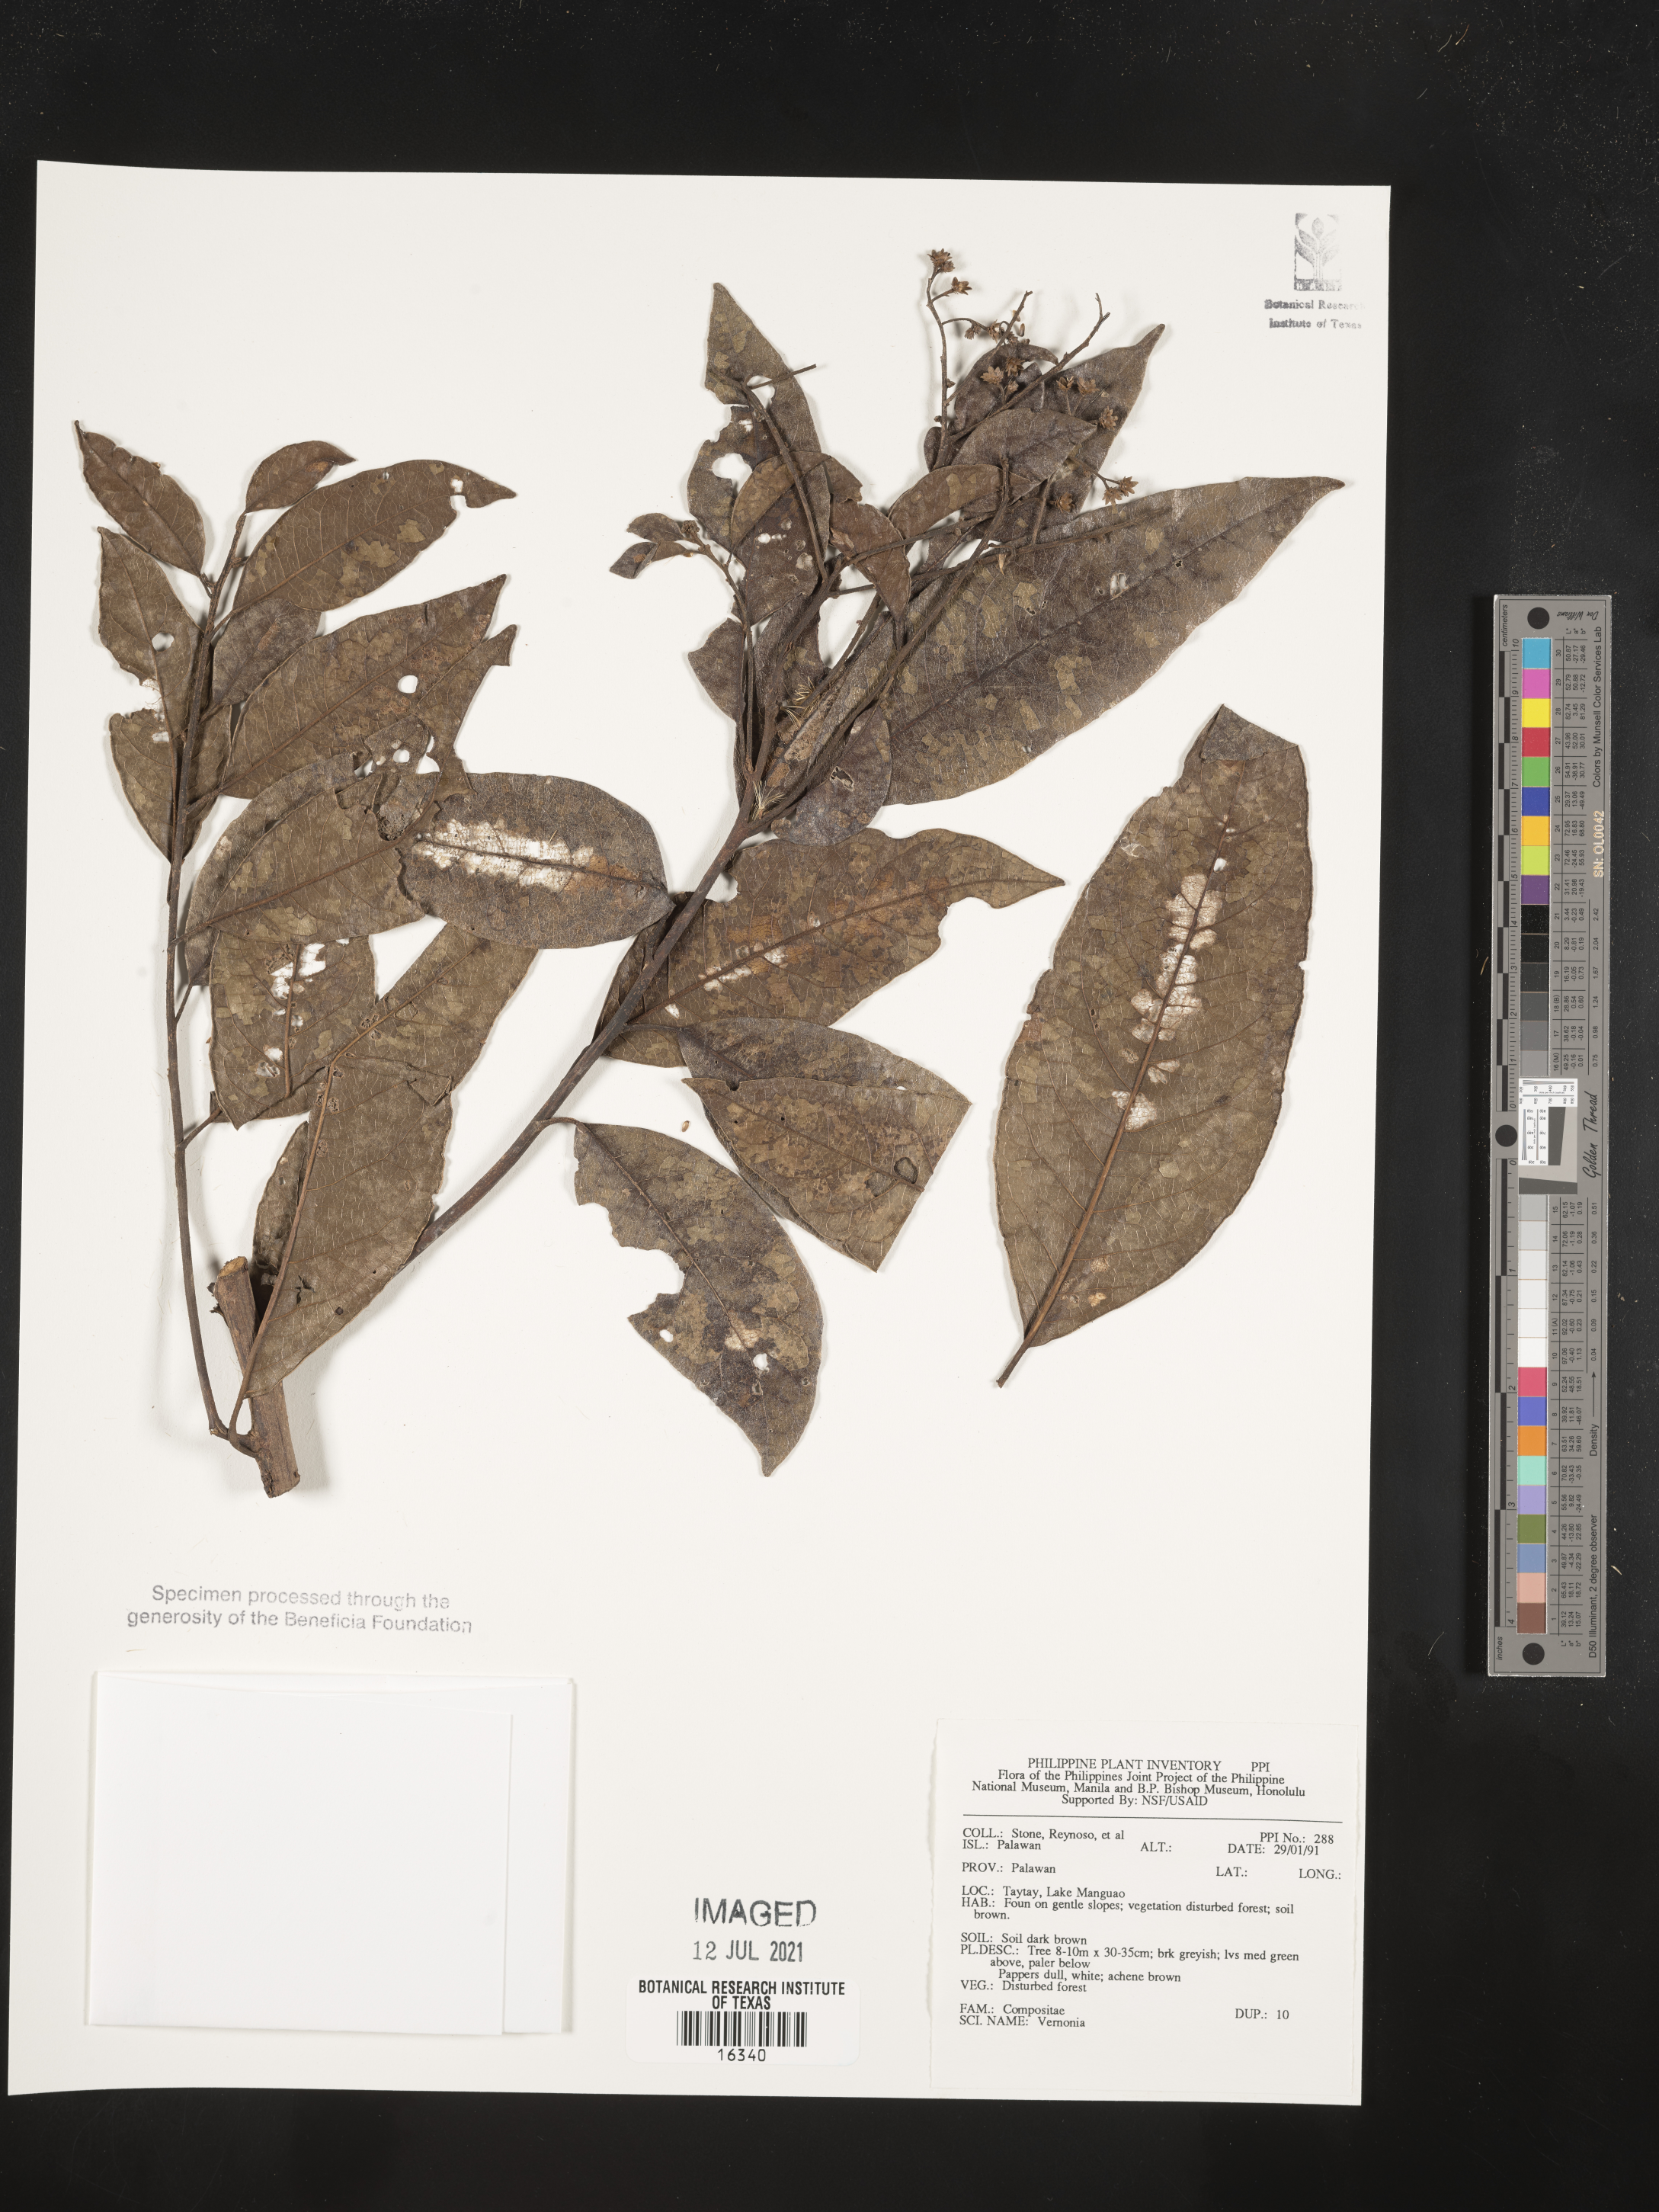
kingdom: Plantae
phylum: Tracheophyta
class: Magnoliopsida
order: Asterales
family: Asteraceae
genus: Vernonia
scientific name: Vernonia
